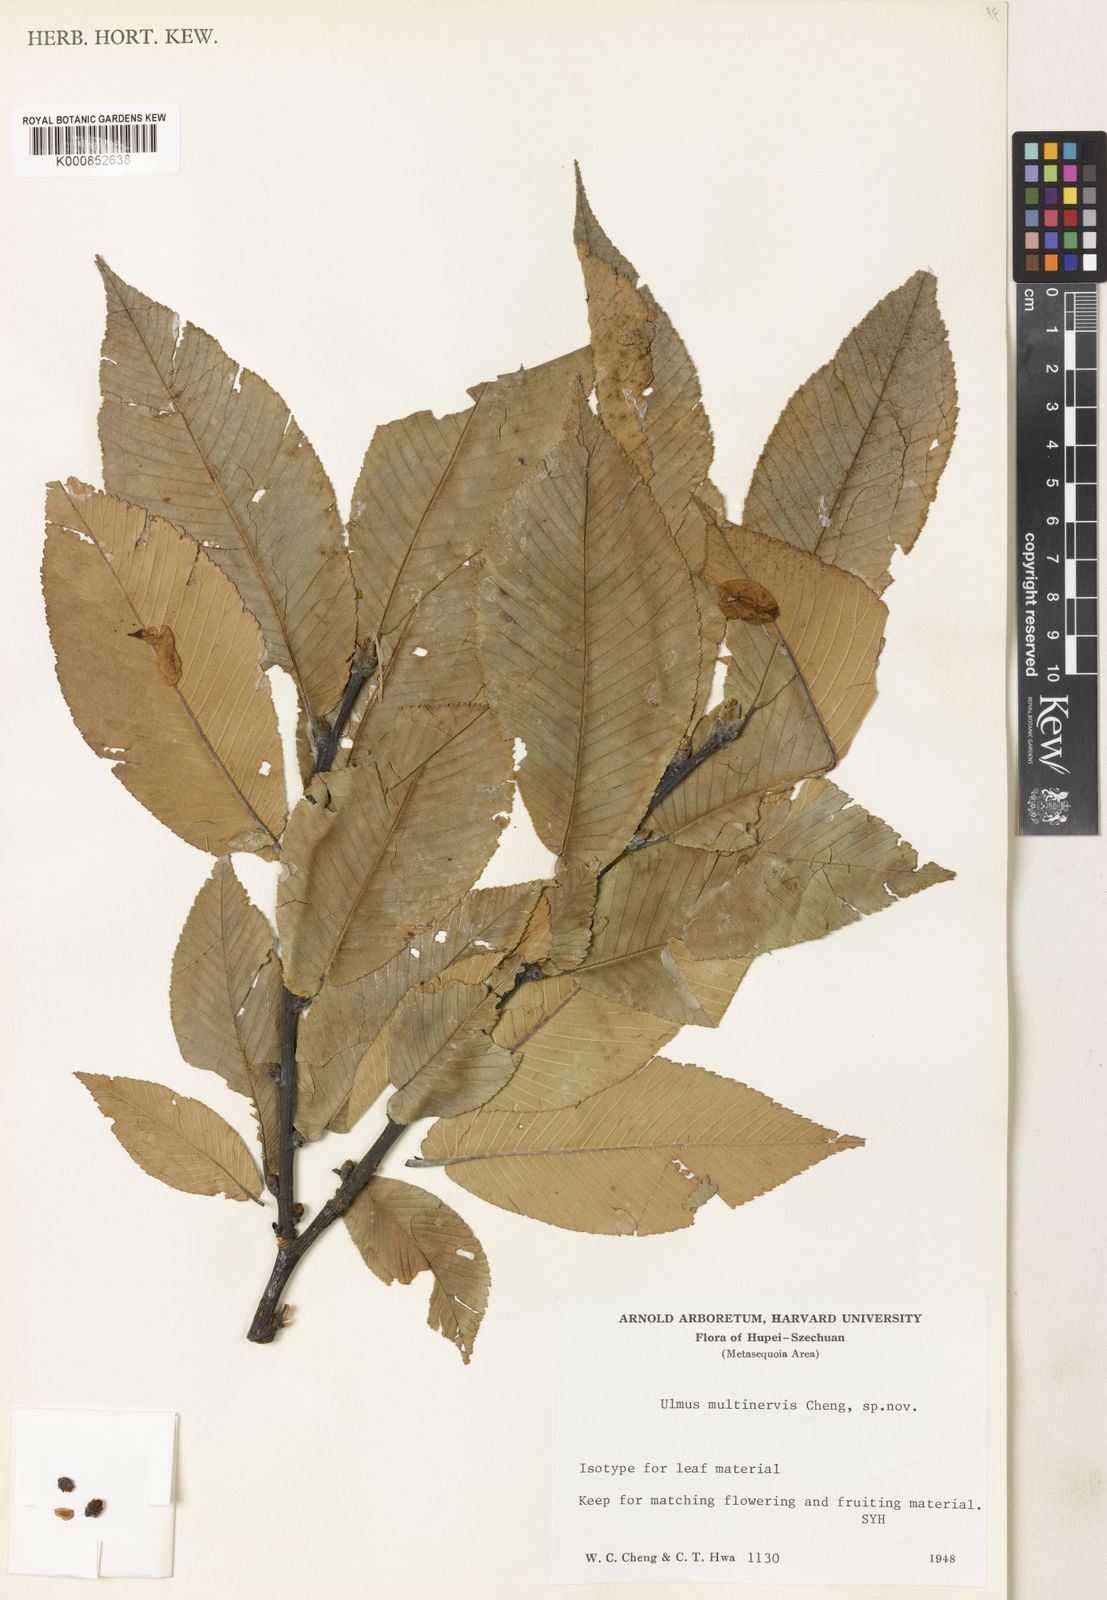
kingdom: Plantae
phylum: Tracheophyta
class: Magnoliopsida
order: Rosales
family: Ulmaceae
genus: Ulmus
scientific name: Ulmus castaneifolia
